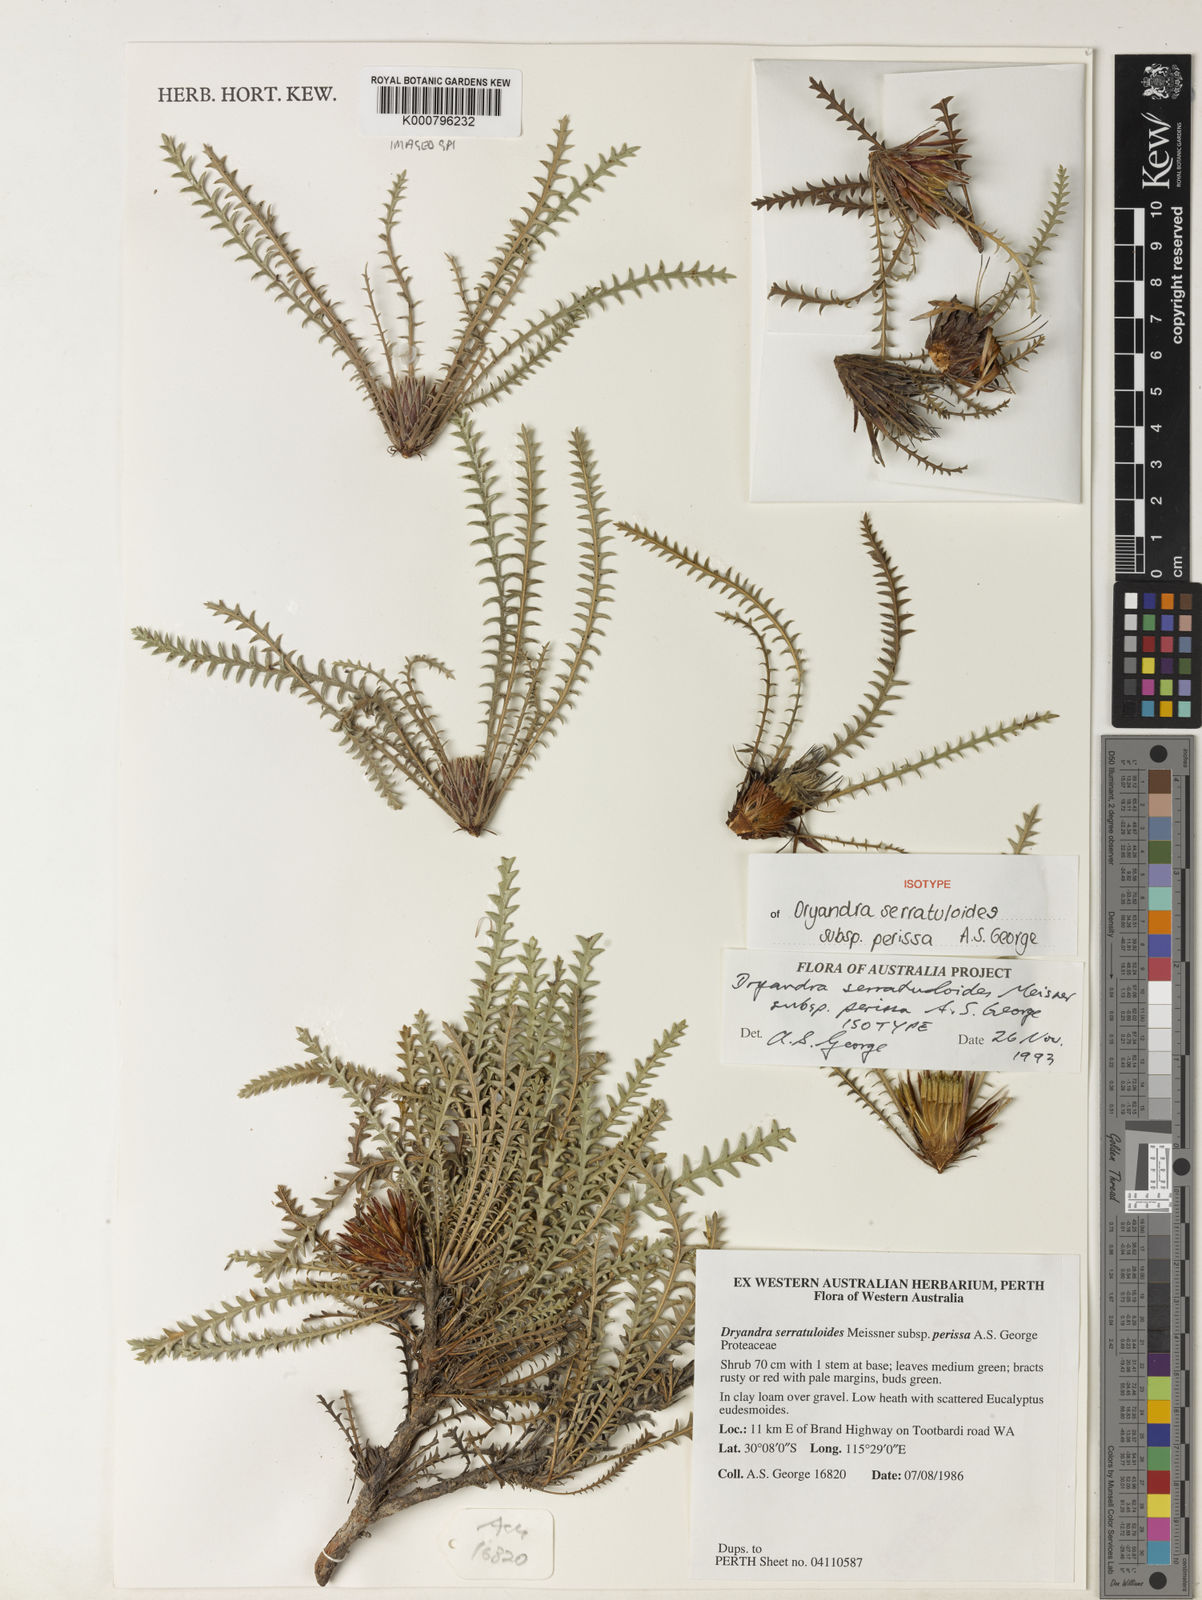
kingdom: Plantae
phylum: Tracheophyta
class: Magnoliopsida
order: Proteales
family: Proteaceae
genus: Banksia
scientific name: Banksia serratuloides
